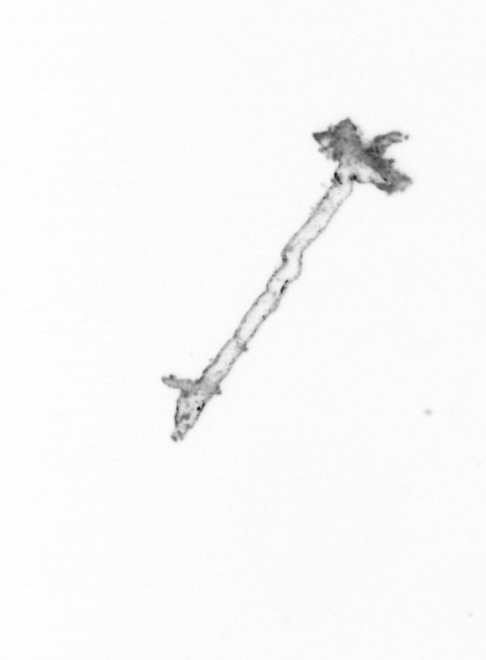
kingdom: Chromista
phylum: Ochrophyta
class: Bacillariophyceae
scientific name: Bacillariophyceae
